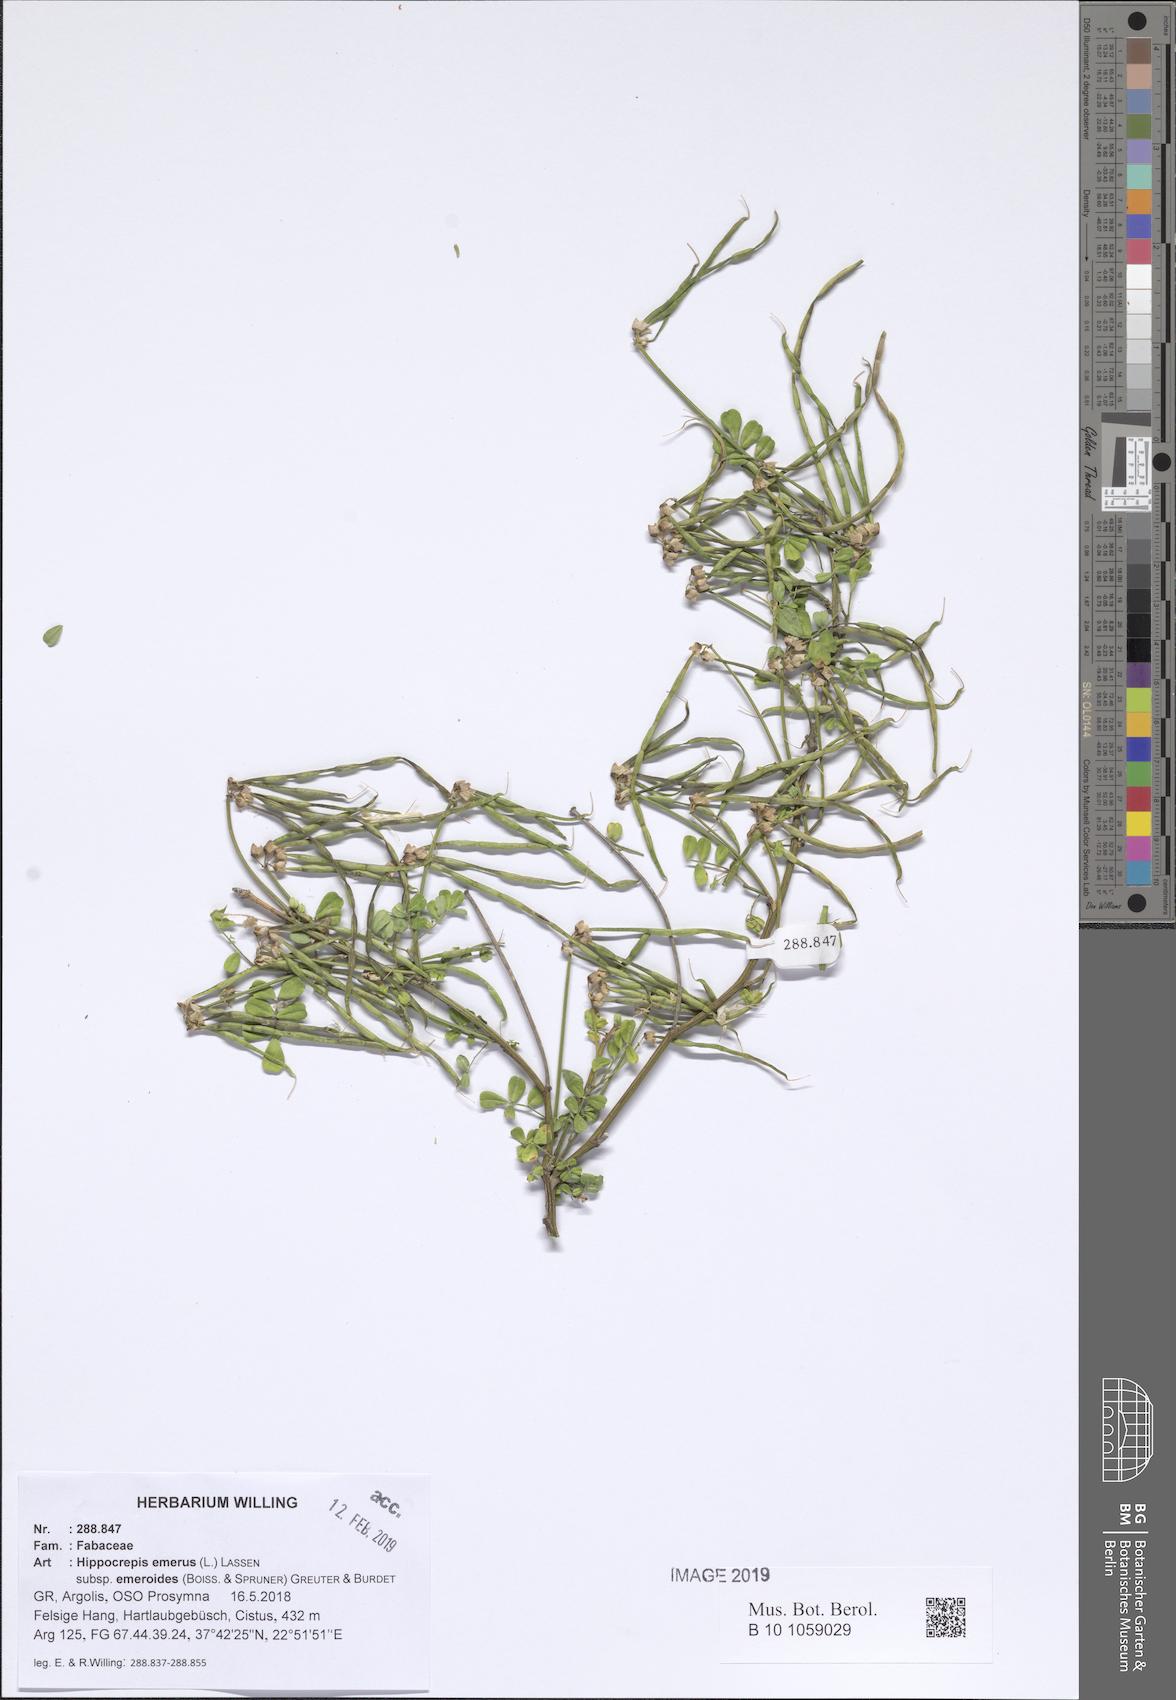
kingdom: Plantae
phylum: Tracheophyta
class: Magnoliopsida
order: Fabales
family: Fabaceae
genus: Hippocrepis
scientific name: Hippocrepis emerus
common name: Scorpion senna
